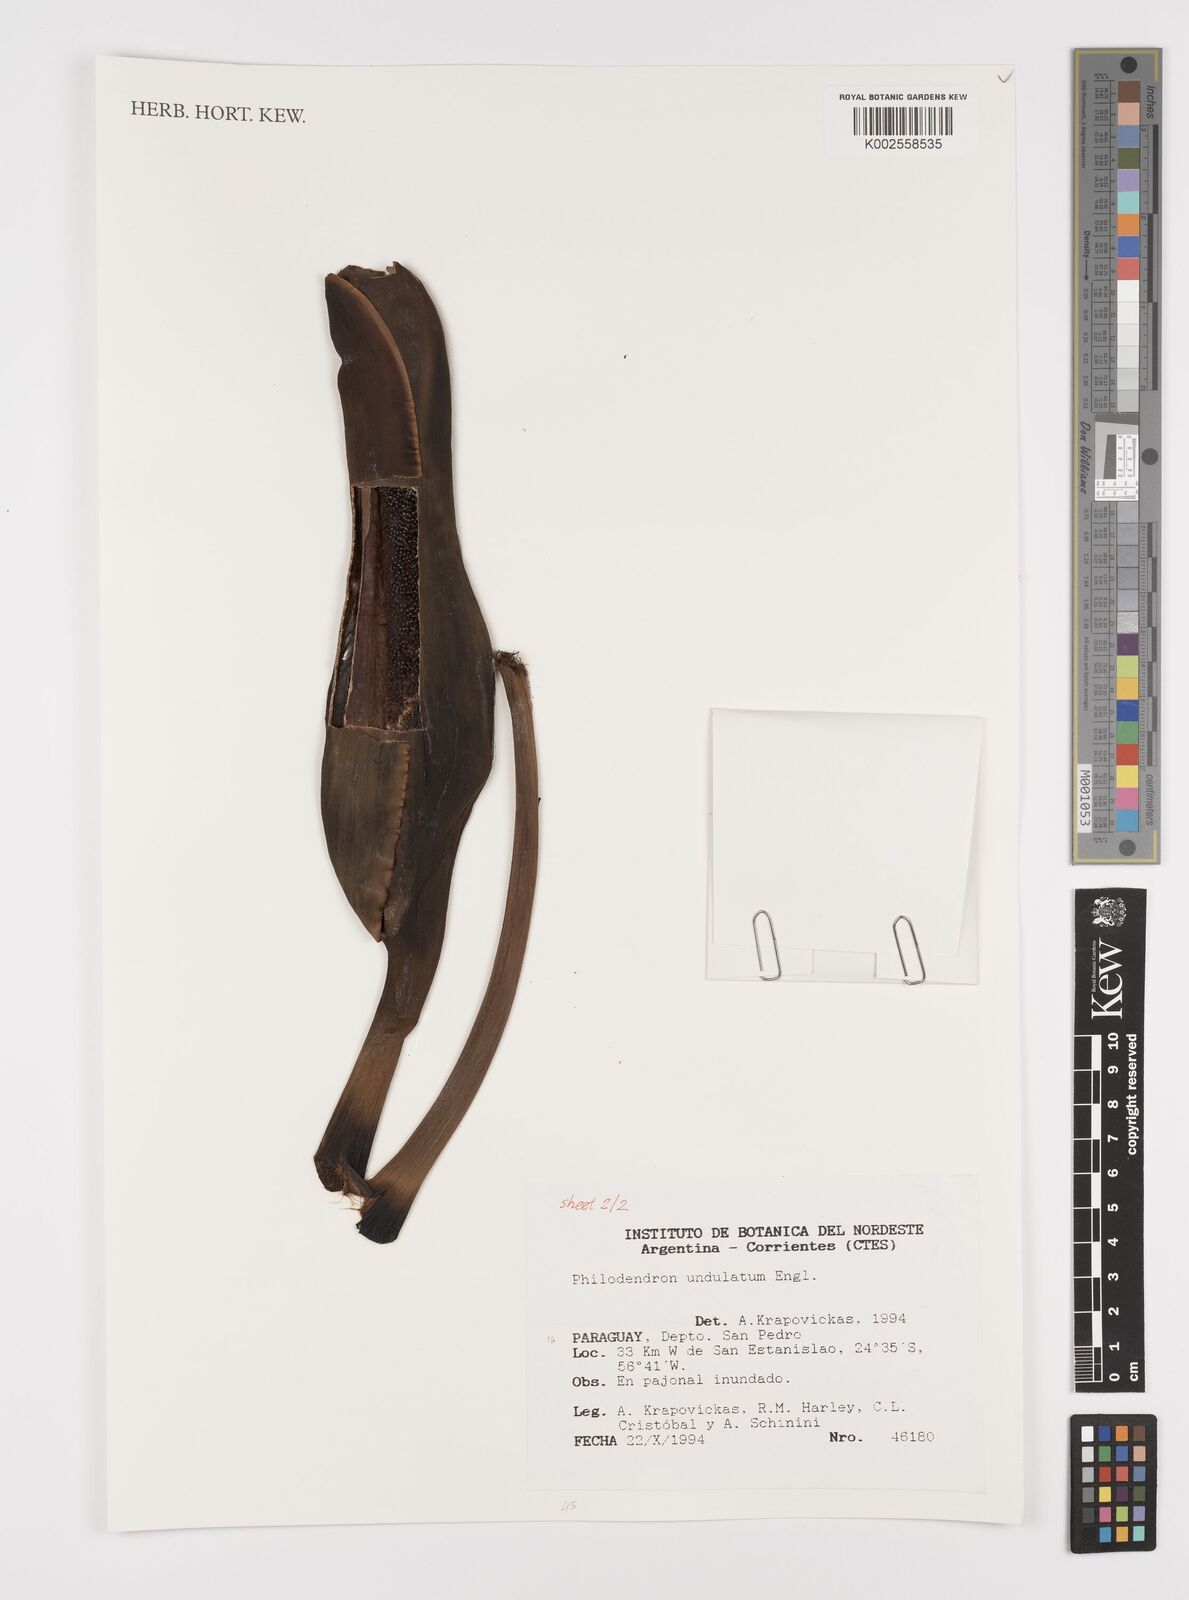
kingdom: Plantae
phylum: Tracheophyta
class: Liliopsida
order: Alismatales
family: Araceae
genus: Thaumatophyllum
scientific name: Thaumatophyllum undulatum
